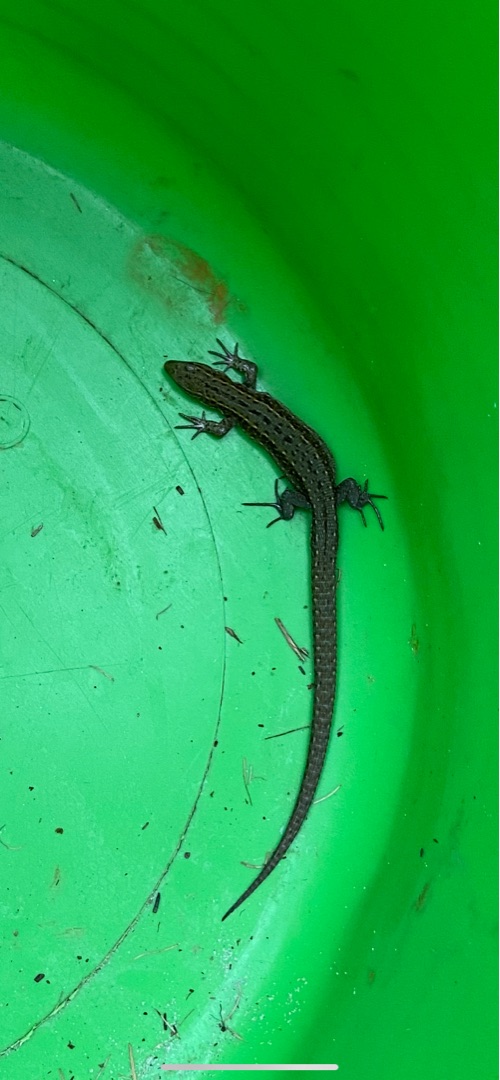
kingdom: Animalia
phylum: Chordata
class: Squamata
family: Lacertidae
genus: Zootoca
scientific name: Zootoca vivipara
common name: Skovfirben
